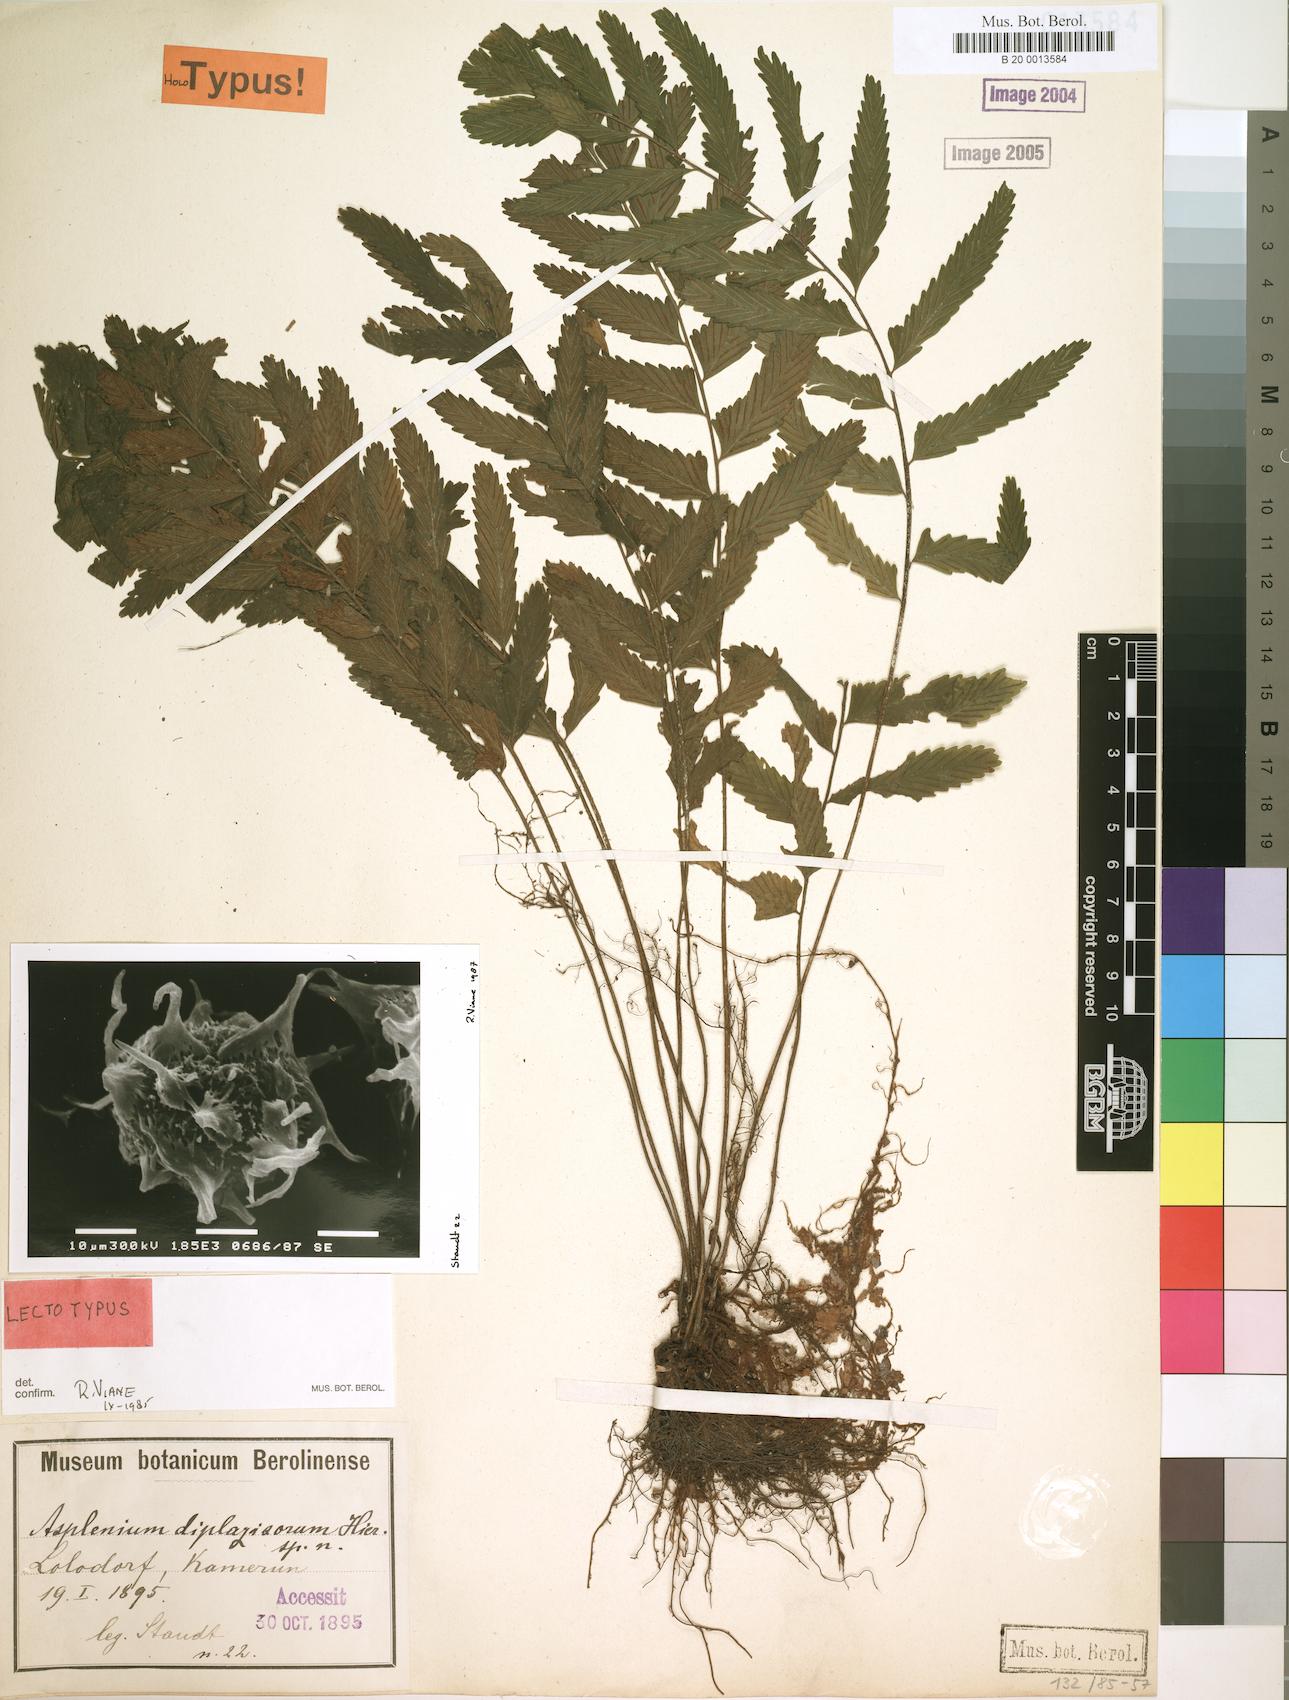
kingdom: Plantae
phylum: Tracheophyta
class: Polypodiopsida
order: Polypodiales
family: Aspleniaceae
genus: Asplenium
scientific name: Asplenium diplazisorum
